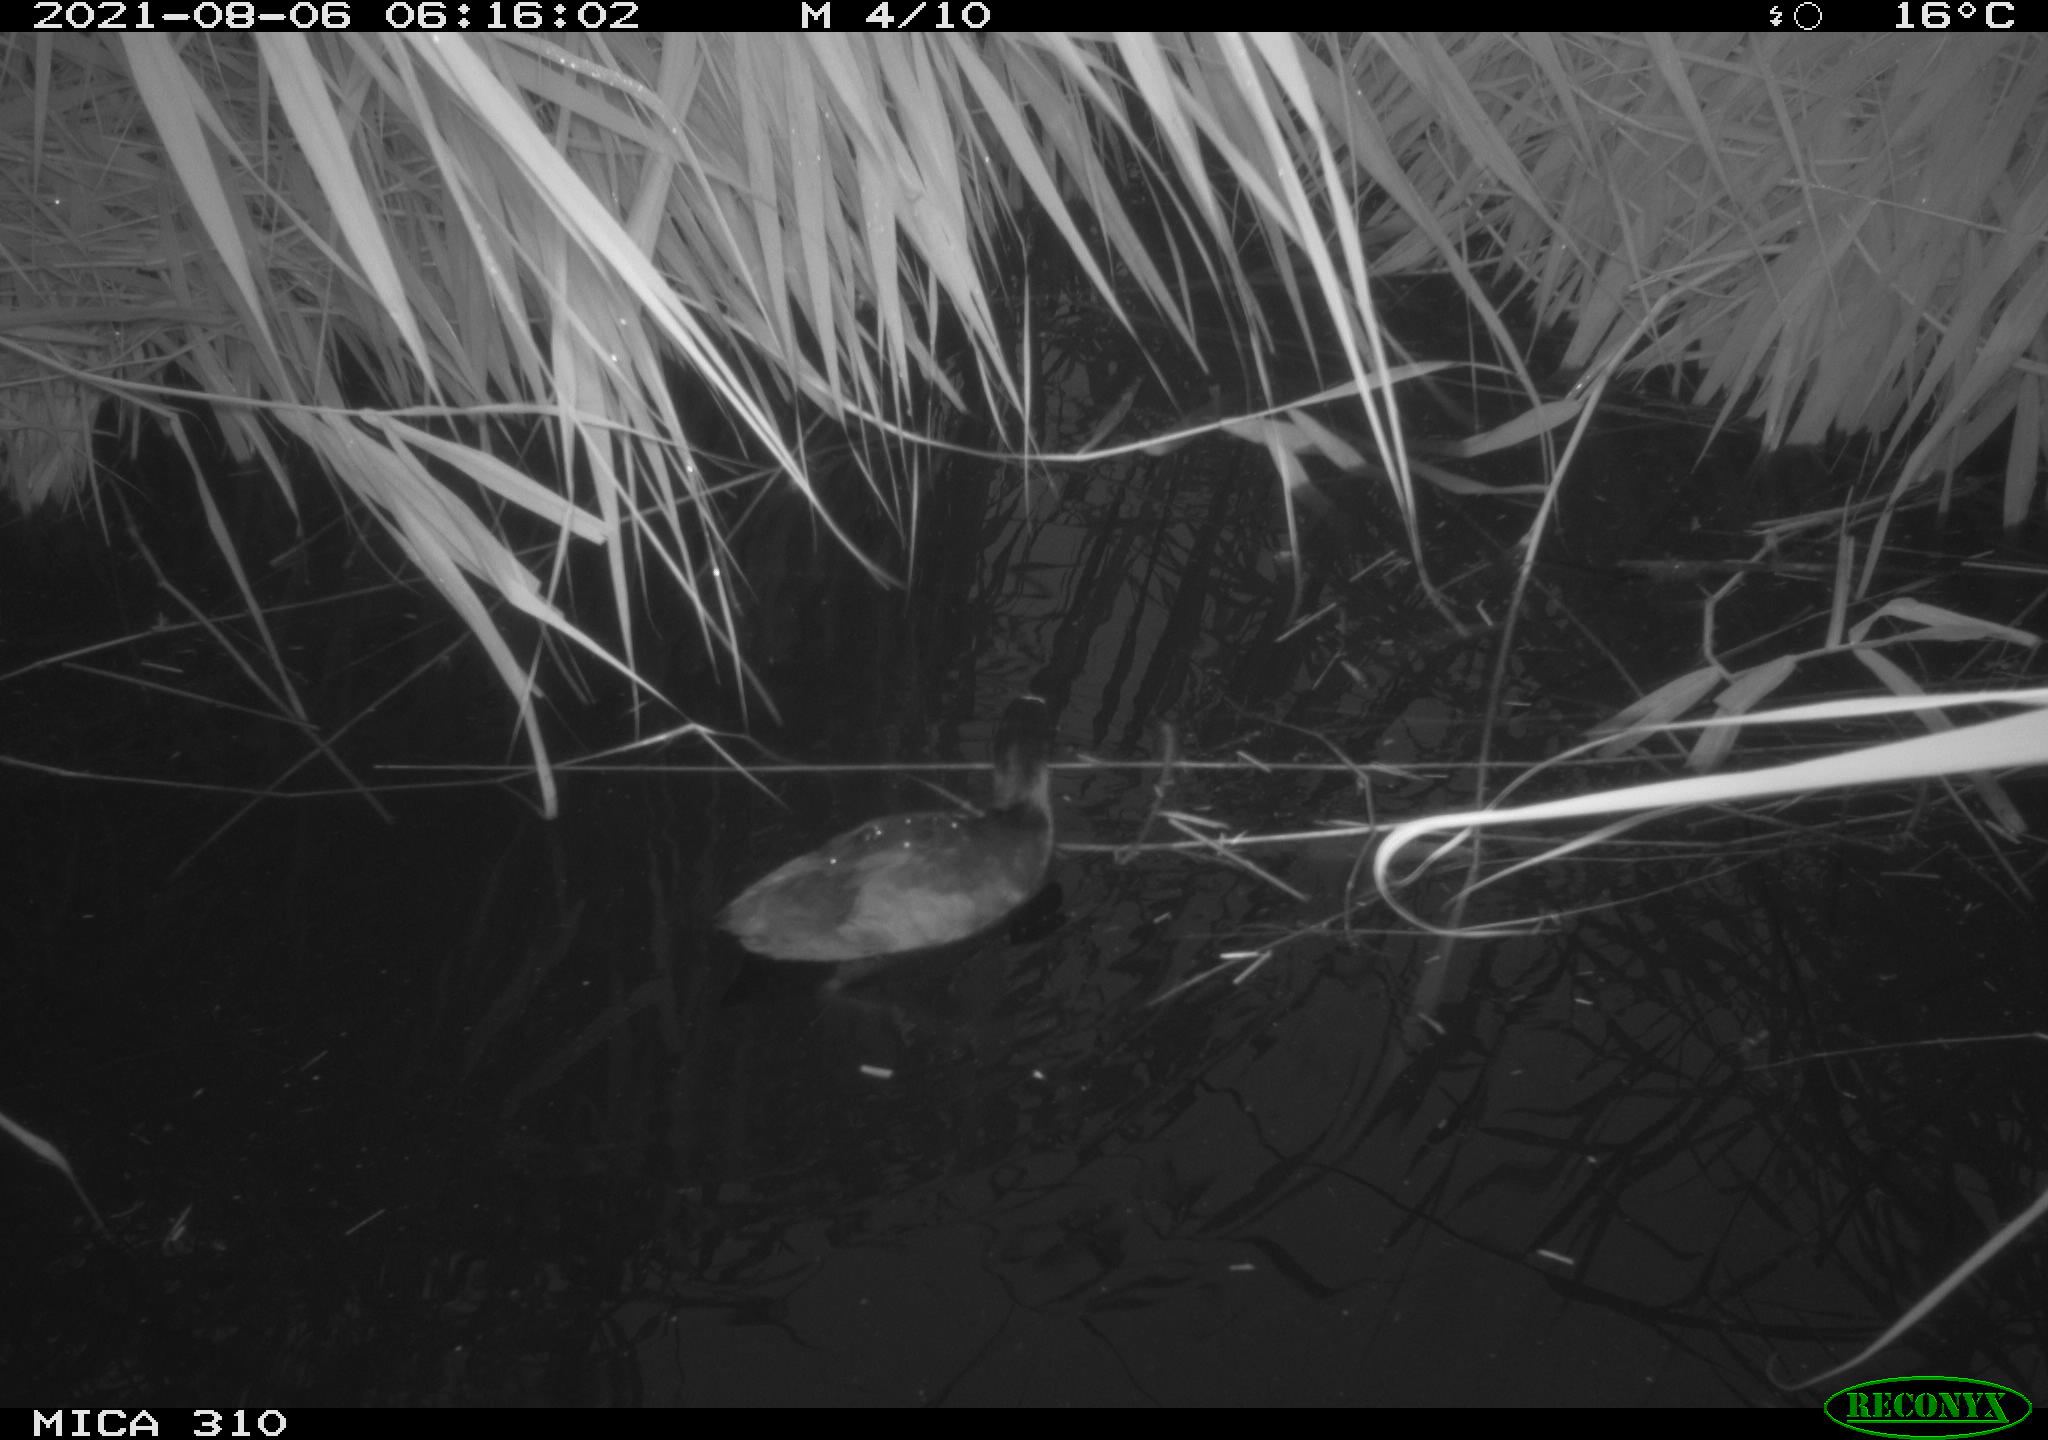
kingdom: Animalia
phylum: Chordata
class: Aves
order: Gruiformes
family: Rallidae
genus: Fulica
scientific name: Fulica atra
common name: Eurasian coot
